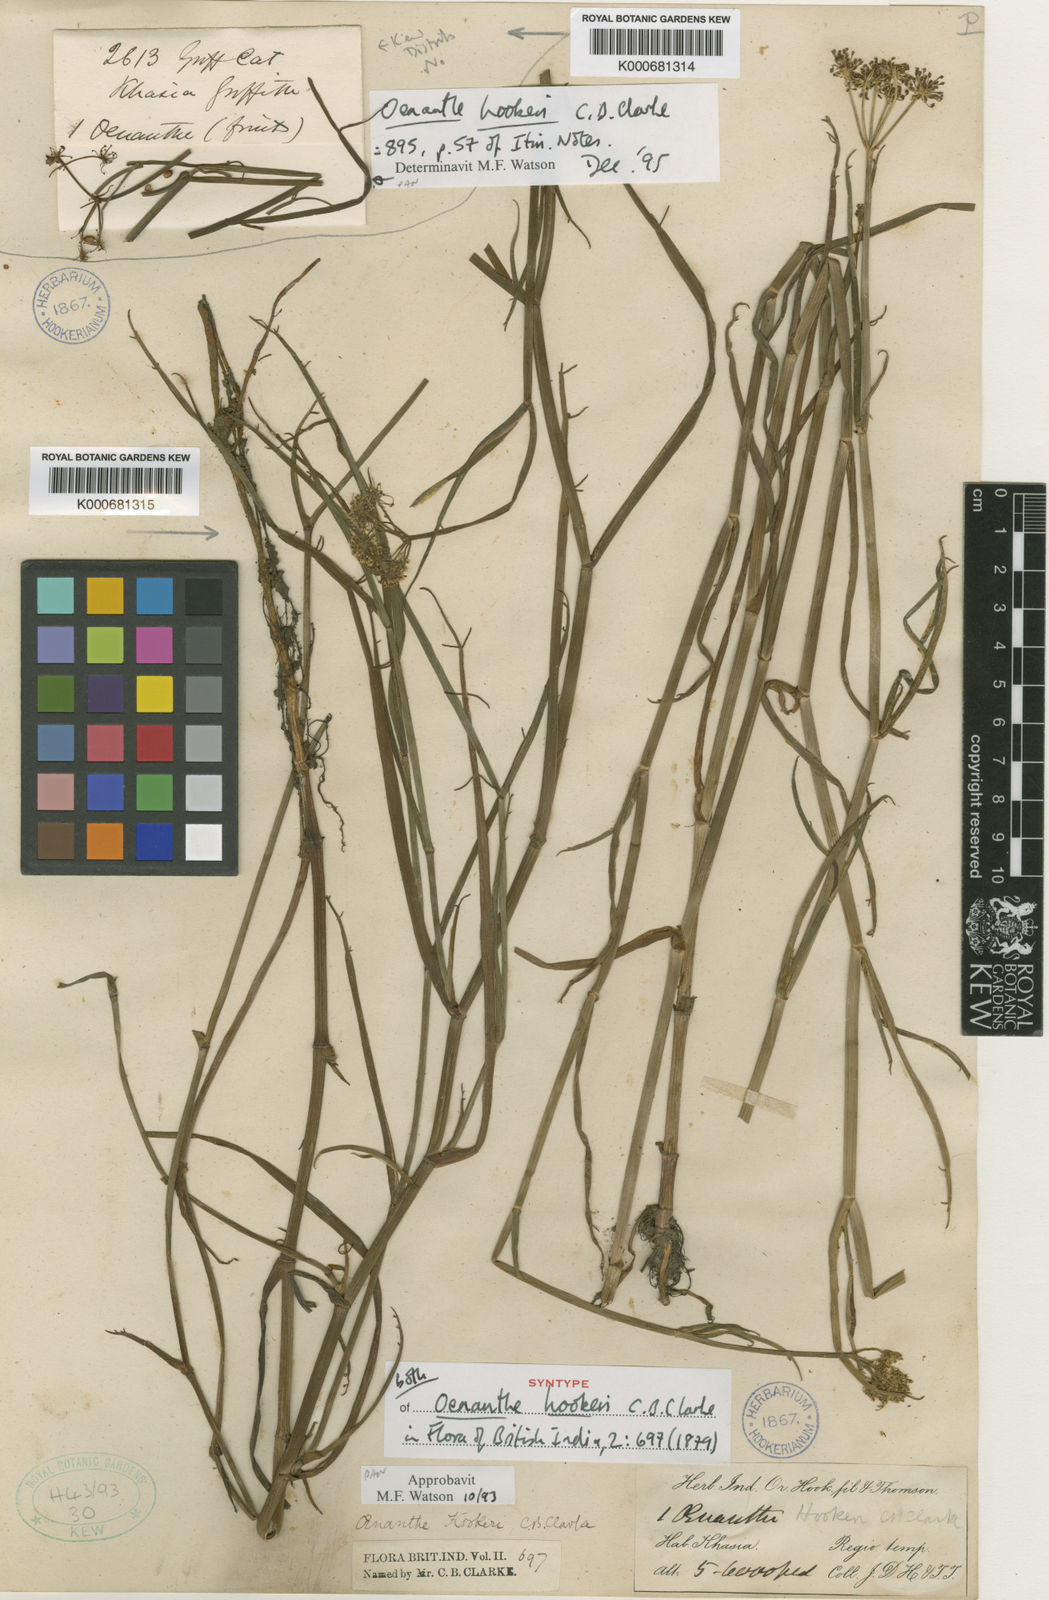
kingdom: Plantae
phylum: Tracheophyta
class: Magnoliopsida
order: Apiales
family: Apiaceae
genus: Oenanthe
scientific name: Oenanthe hookeri
